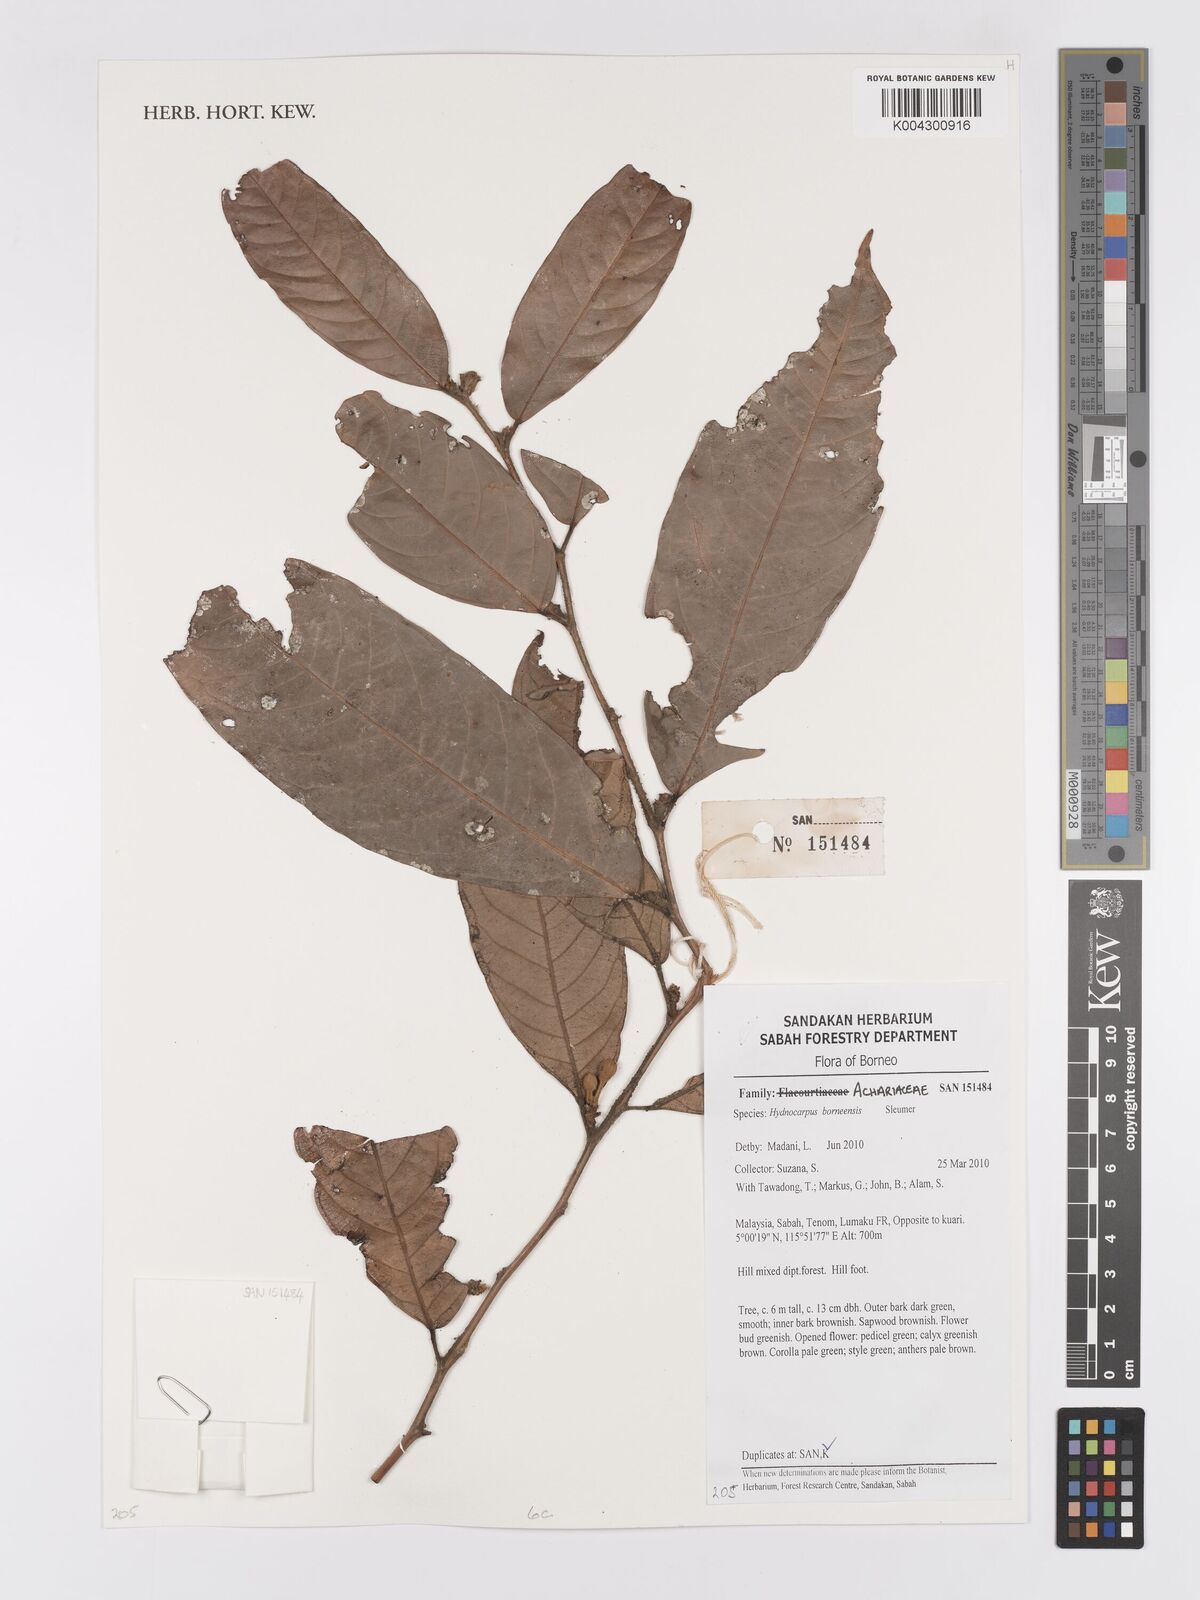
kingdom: Plantae
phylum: Tracheophyta
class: Magnoliopsida
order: Malpighiales
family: Achariaceae
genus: Hydnocarpus
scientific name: Hydnocarpus
